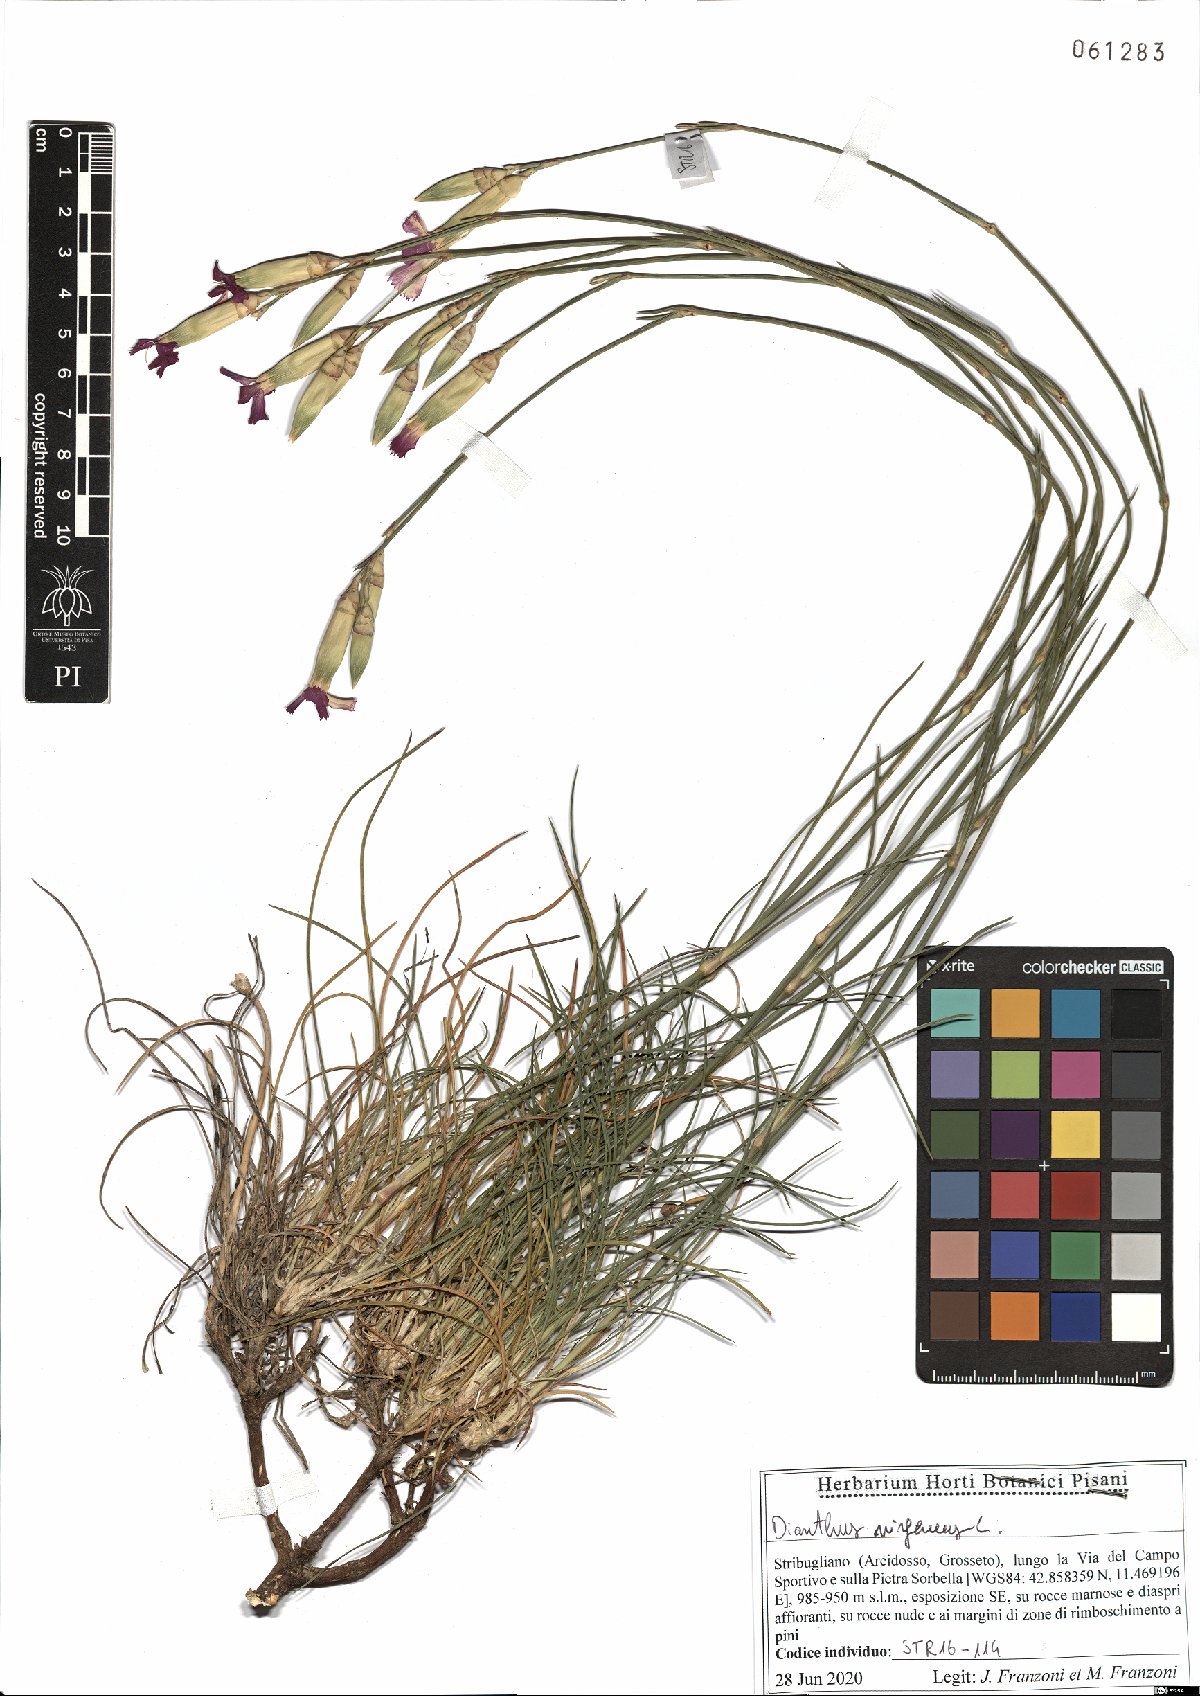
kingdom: Plantae
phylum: Tracheophyta
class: Magnoliopsida
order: Caryophyllales
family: Caryophyllaceae
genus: Dianthus
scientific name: Dianthus virgineus
